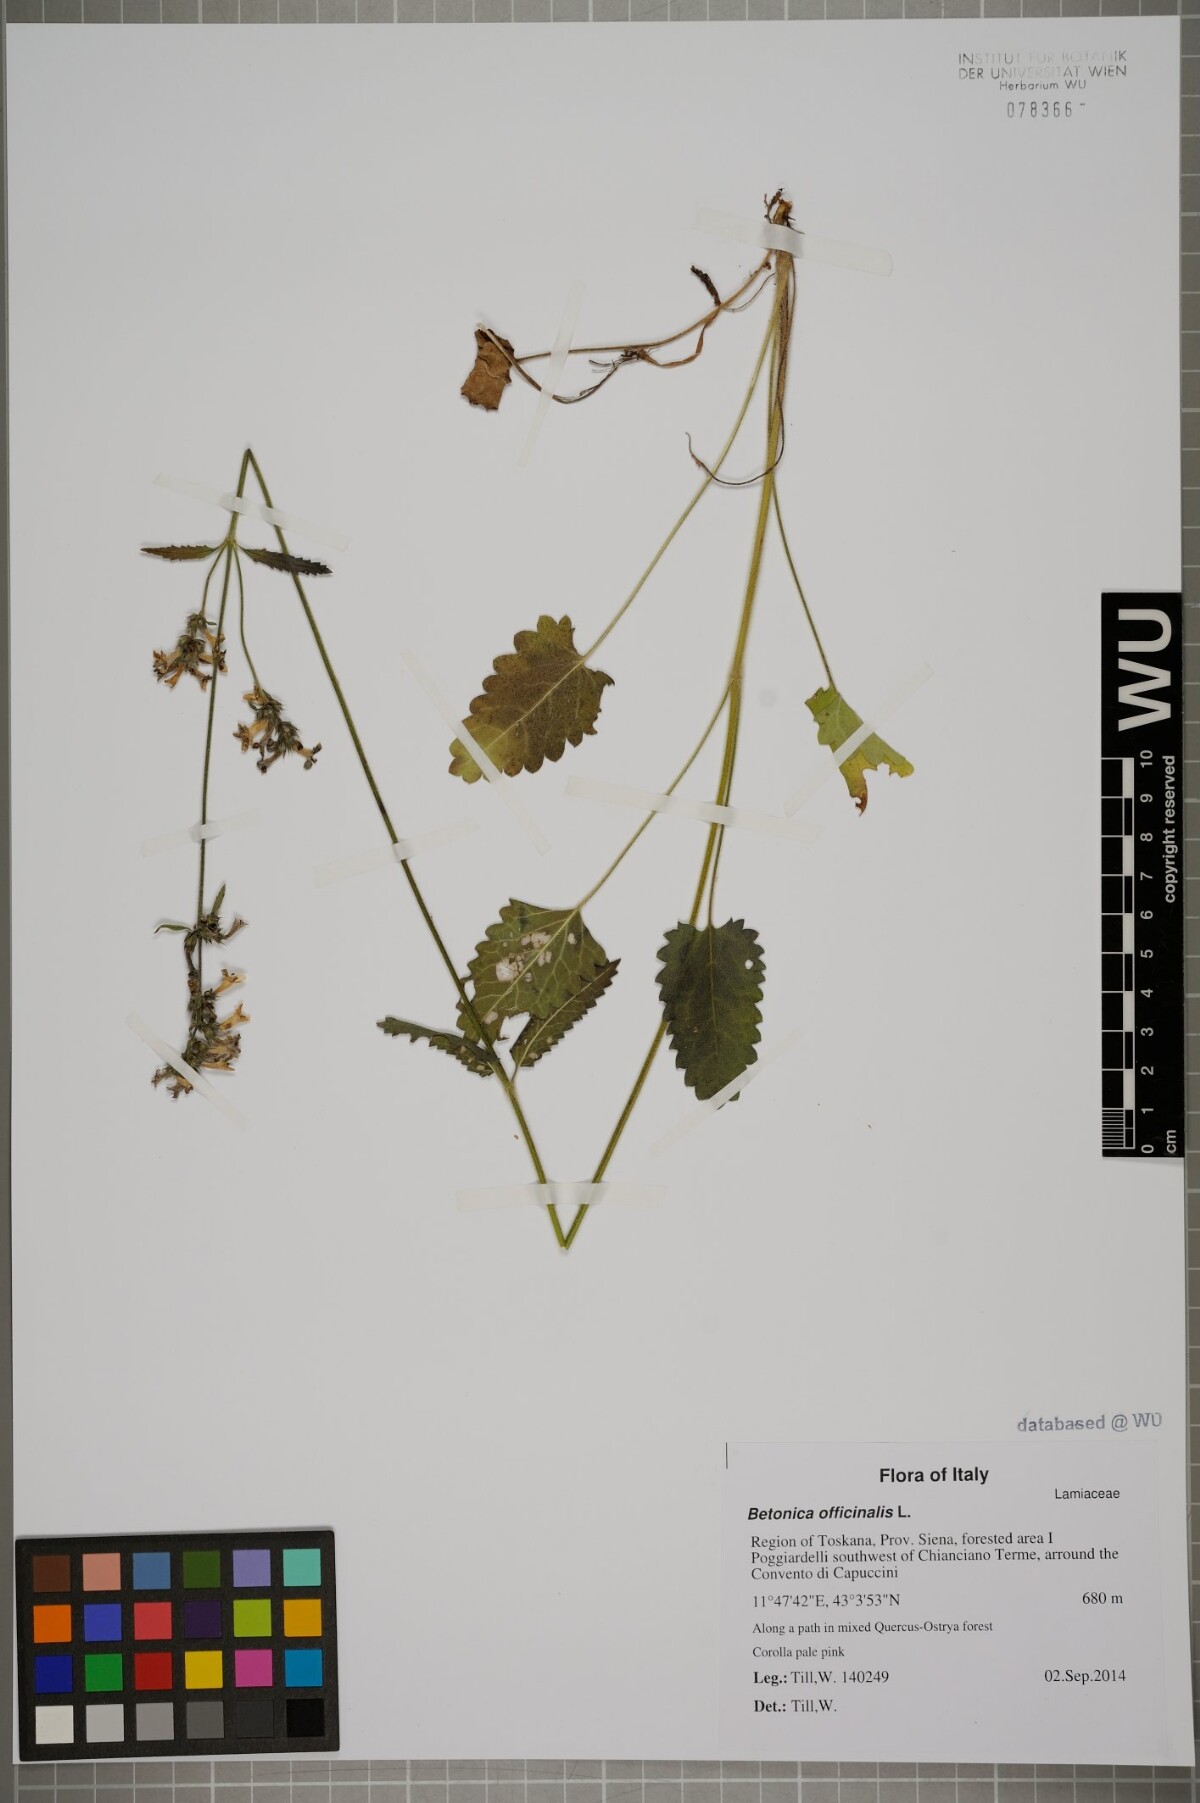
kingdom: Plantae
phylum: Tracheophyta
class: Magnoliopsida
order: Lamiales
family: Lamiaceae
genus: Betonica
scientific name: Betonica officinalis
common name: Bishop's-wort
